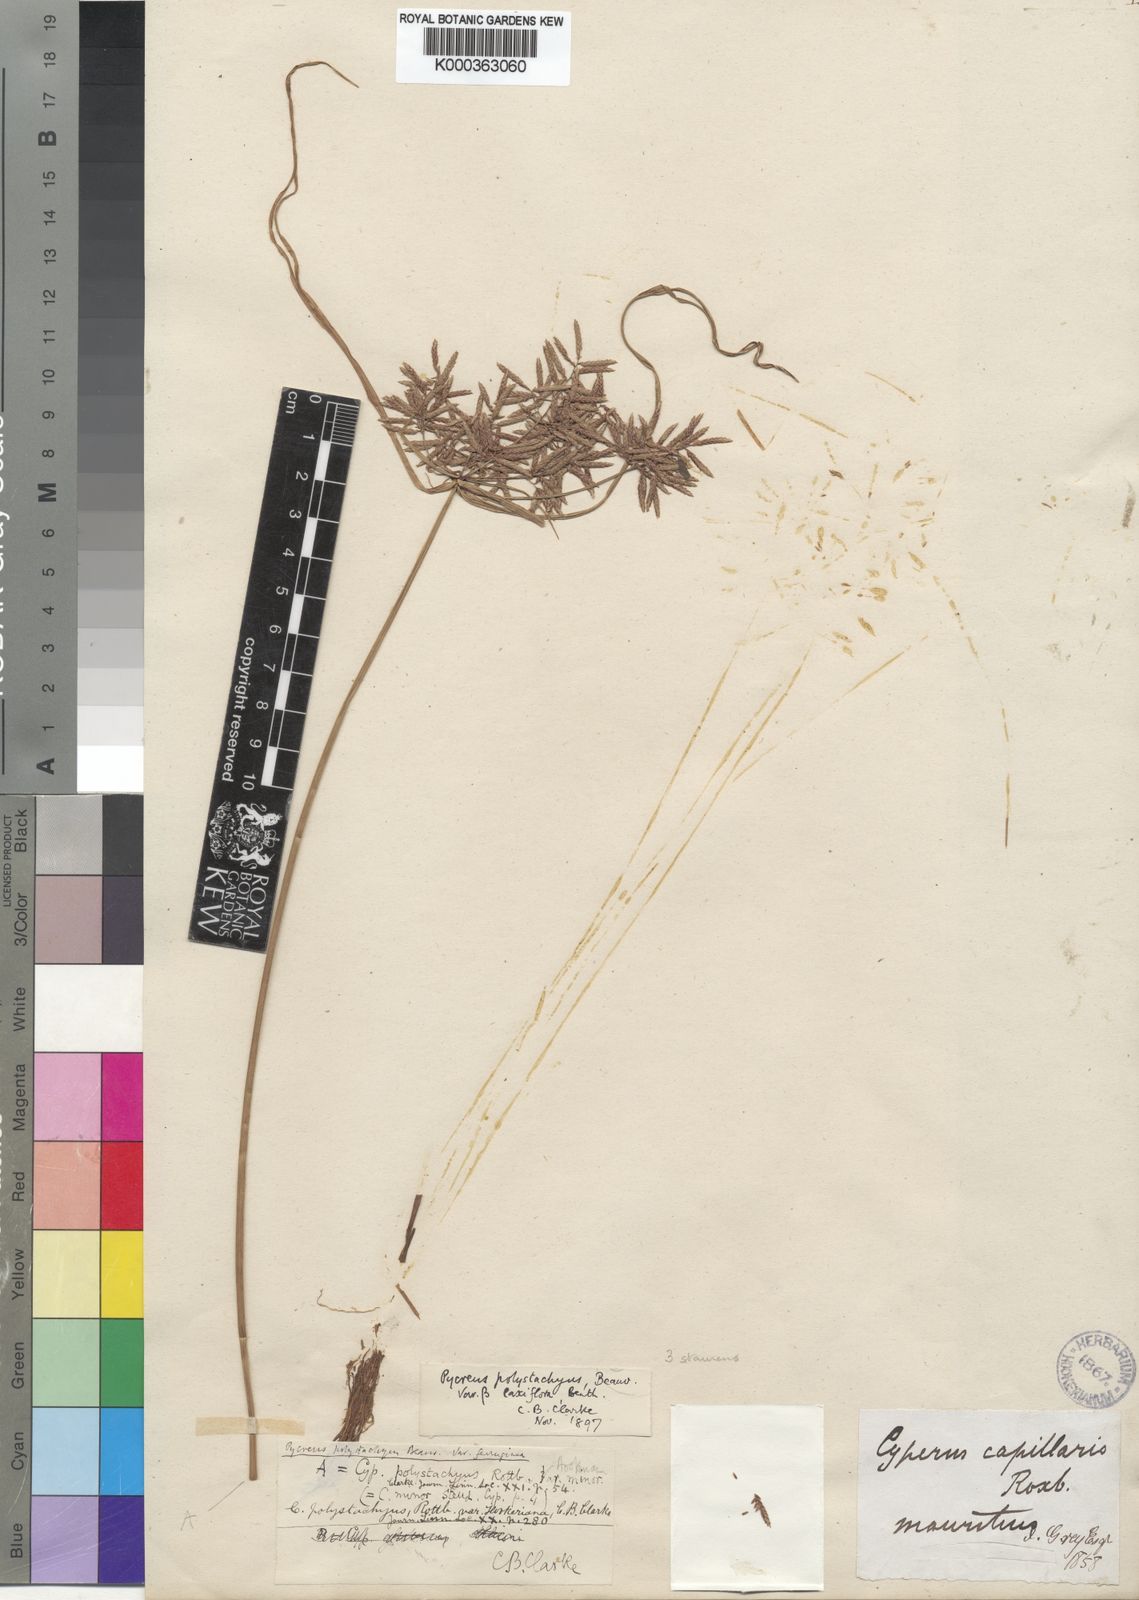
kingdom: Plantae
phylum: Tracheophyta
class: Liliopsida
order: Poales
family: Cyperaceae
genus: Cyperus
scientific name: Cyperus polystachyos
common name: Bunchy flat sedge
